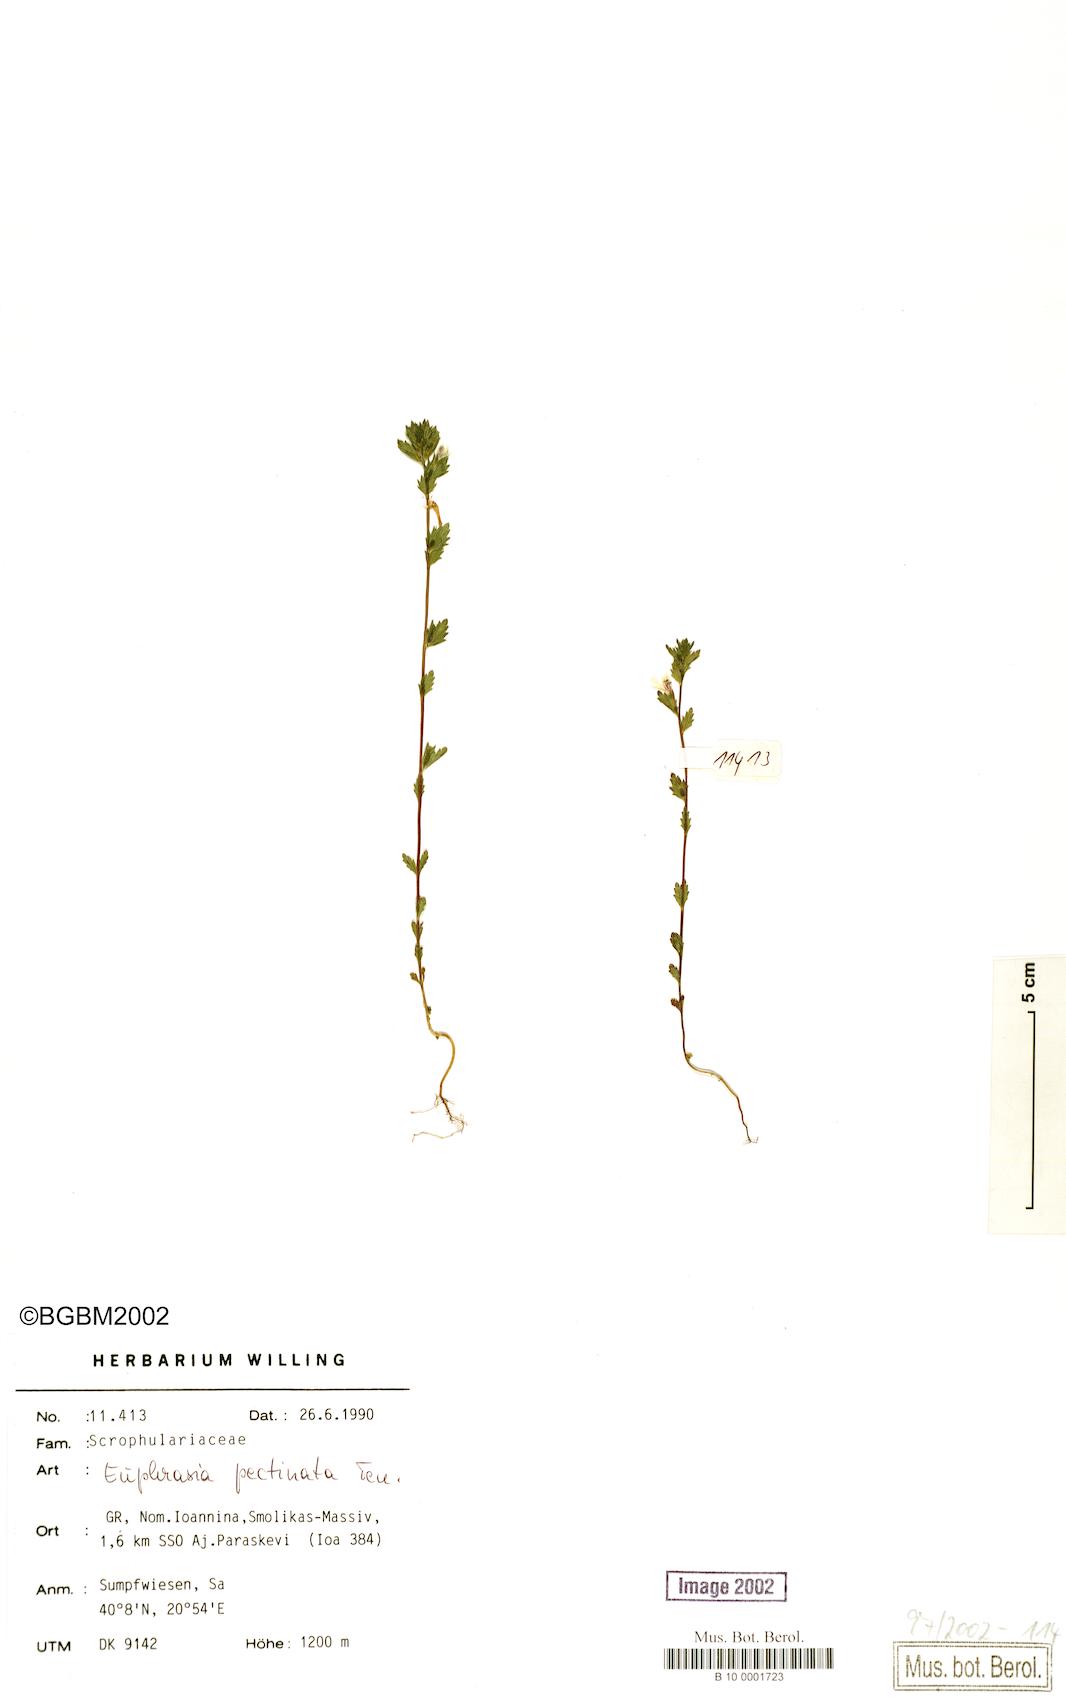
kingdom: Plantae
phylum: Tracheophyta
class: Magnoliopsida
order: Lamiales
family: Orobanchaceae
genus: Euphrasia
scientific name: Euphrasia pectinata
